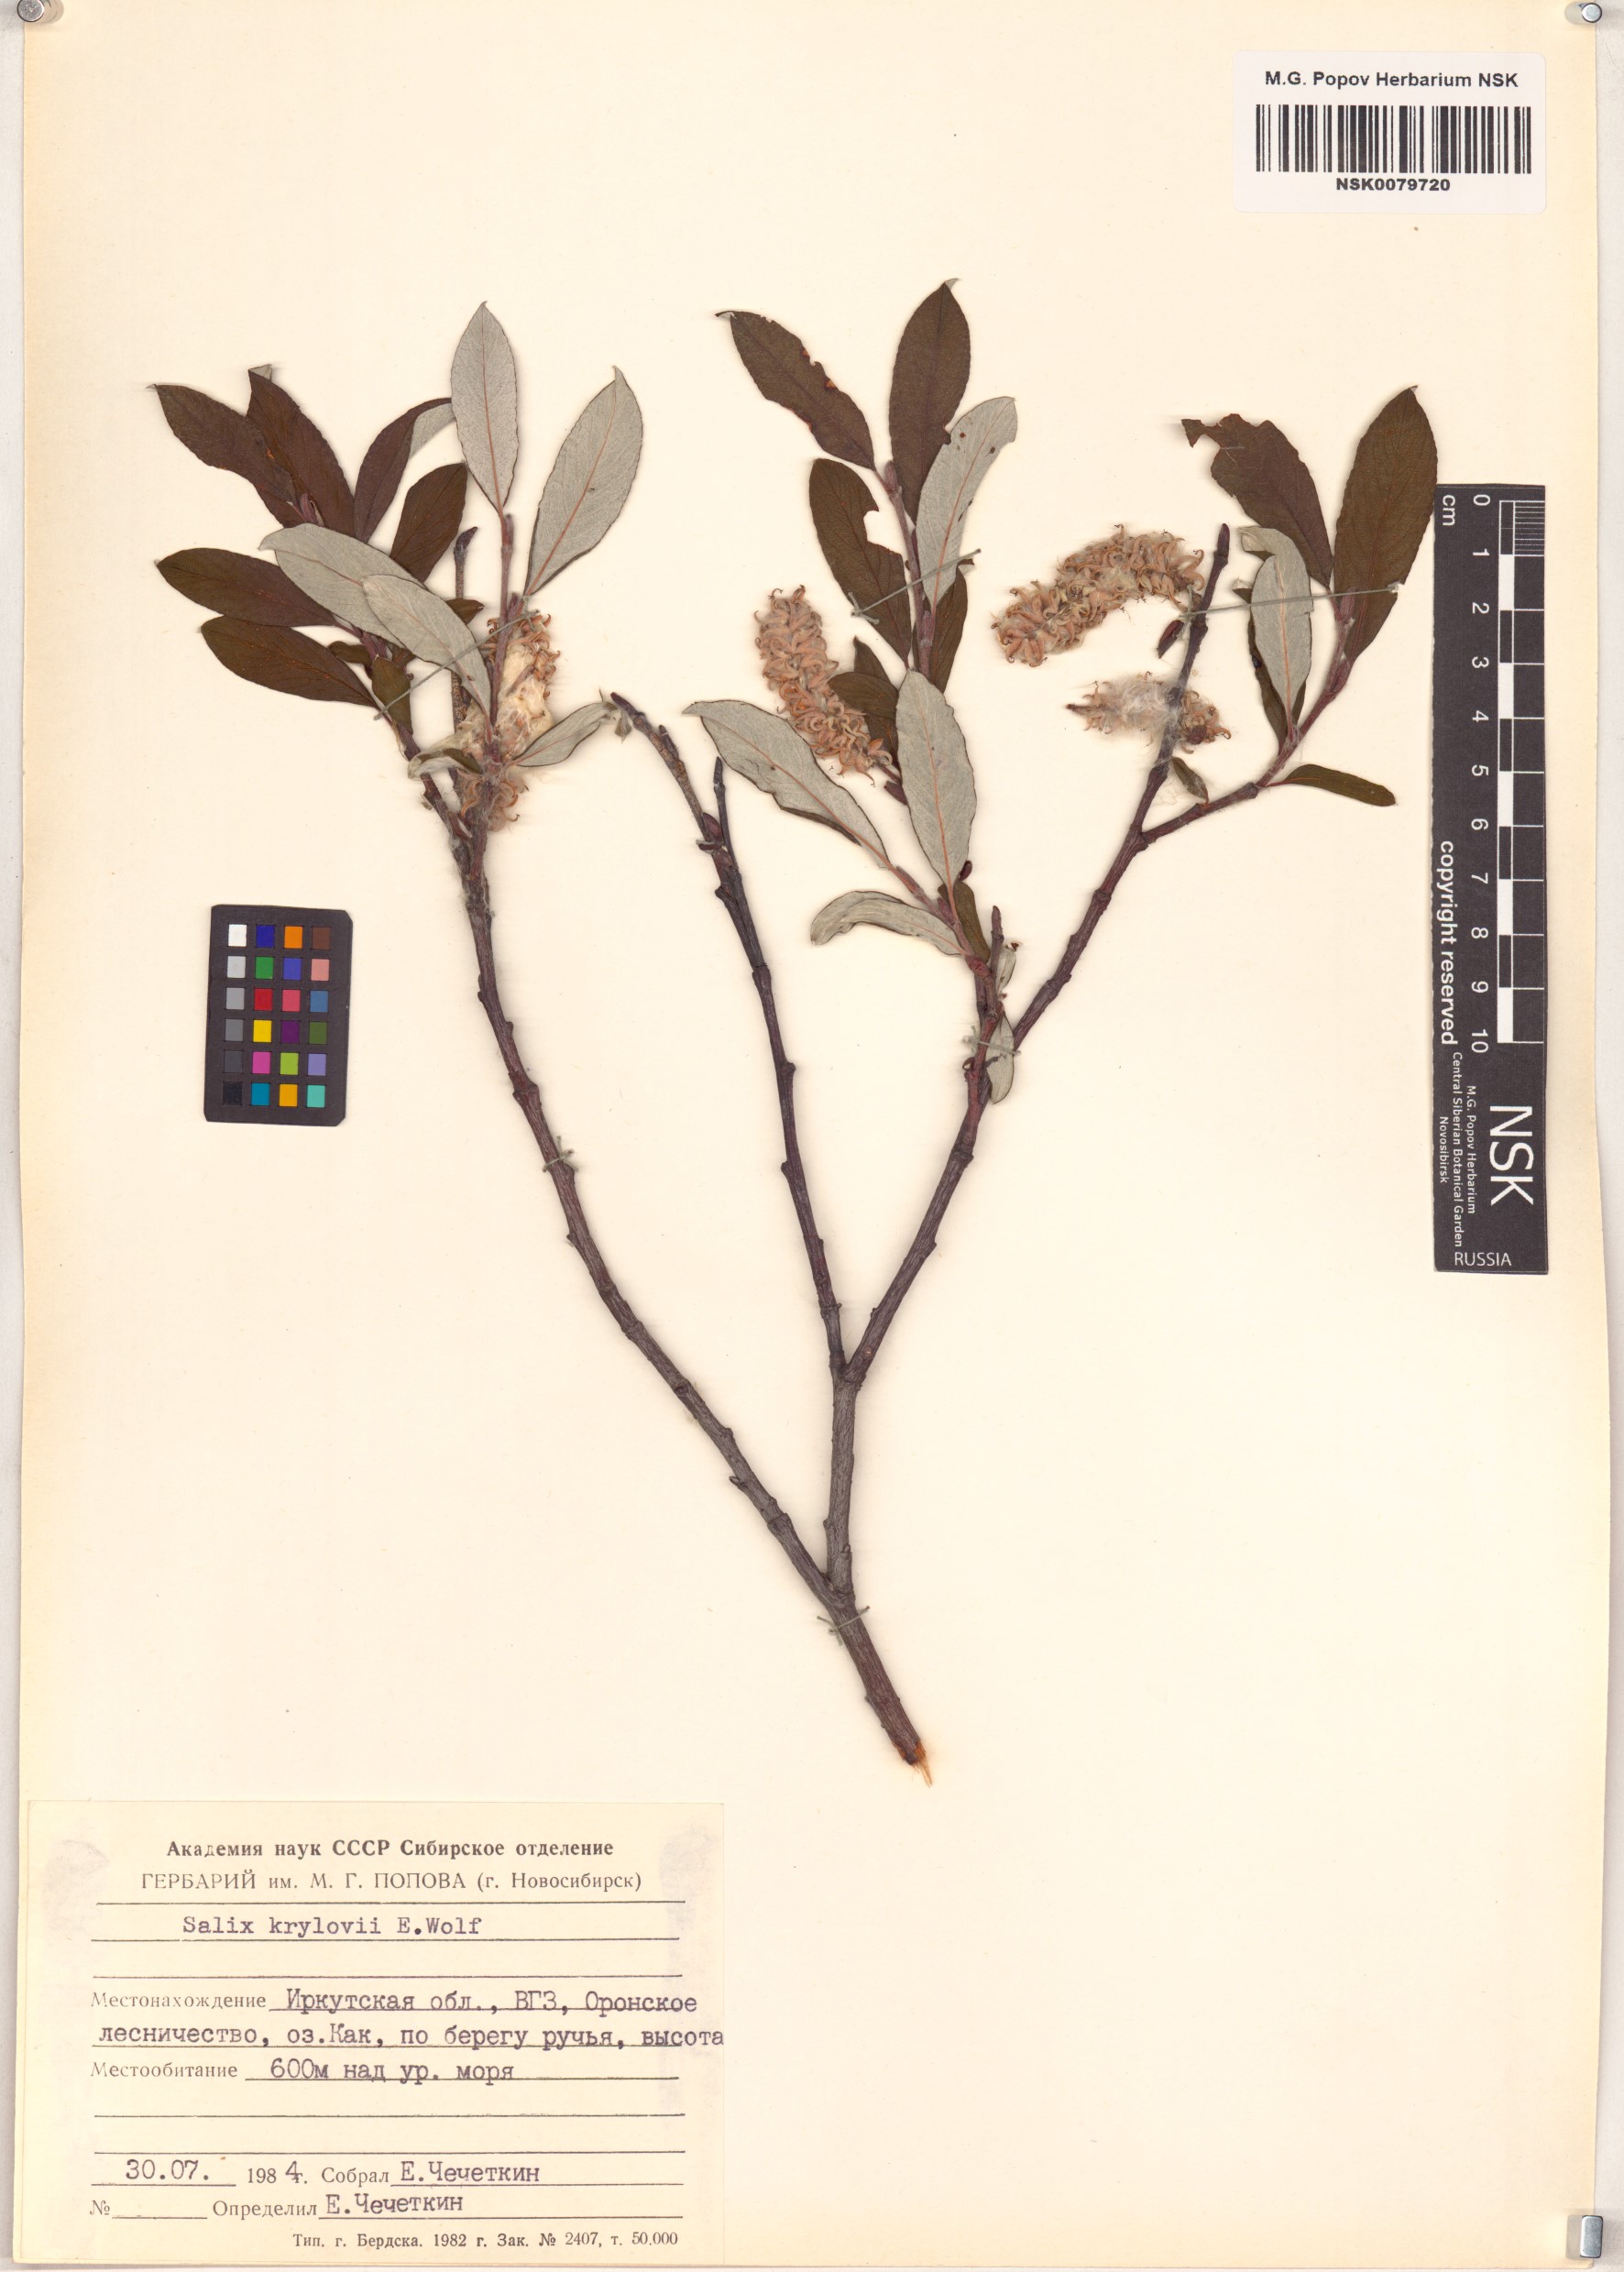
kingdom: Plantae
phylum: Tracheophyta
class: Magnoliopsida
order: Malpighiales
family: Salicaceae
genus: Salix
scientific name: Salix krylovii
